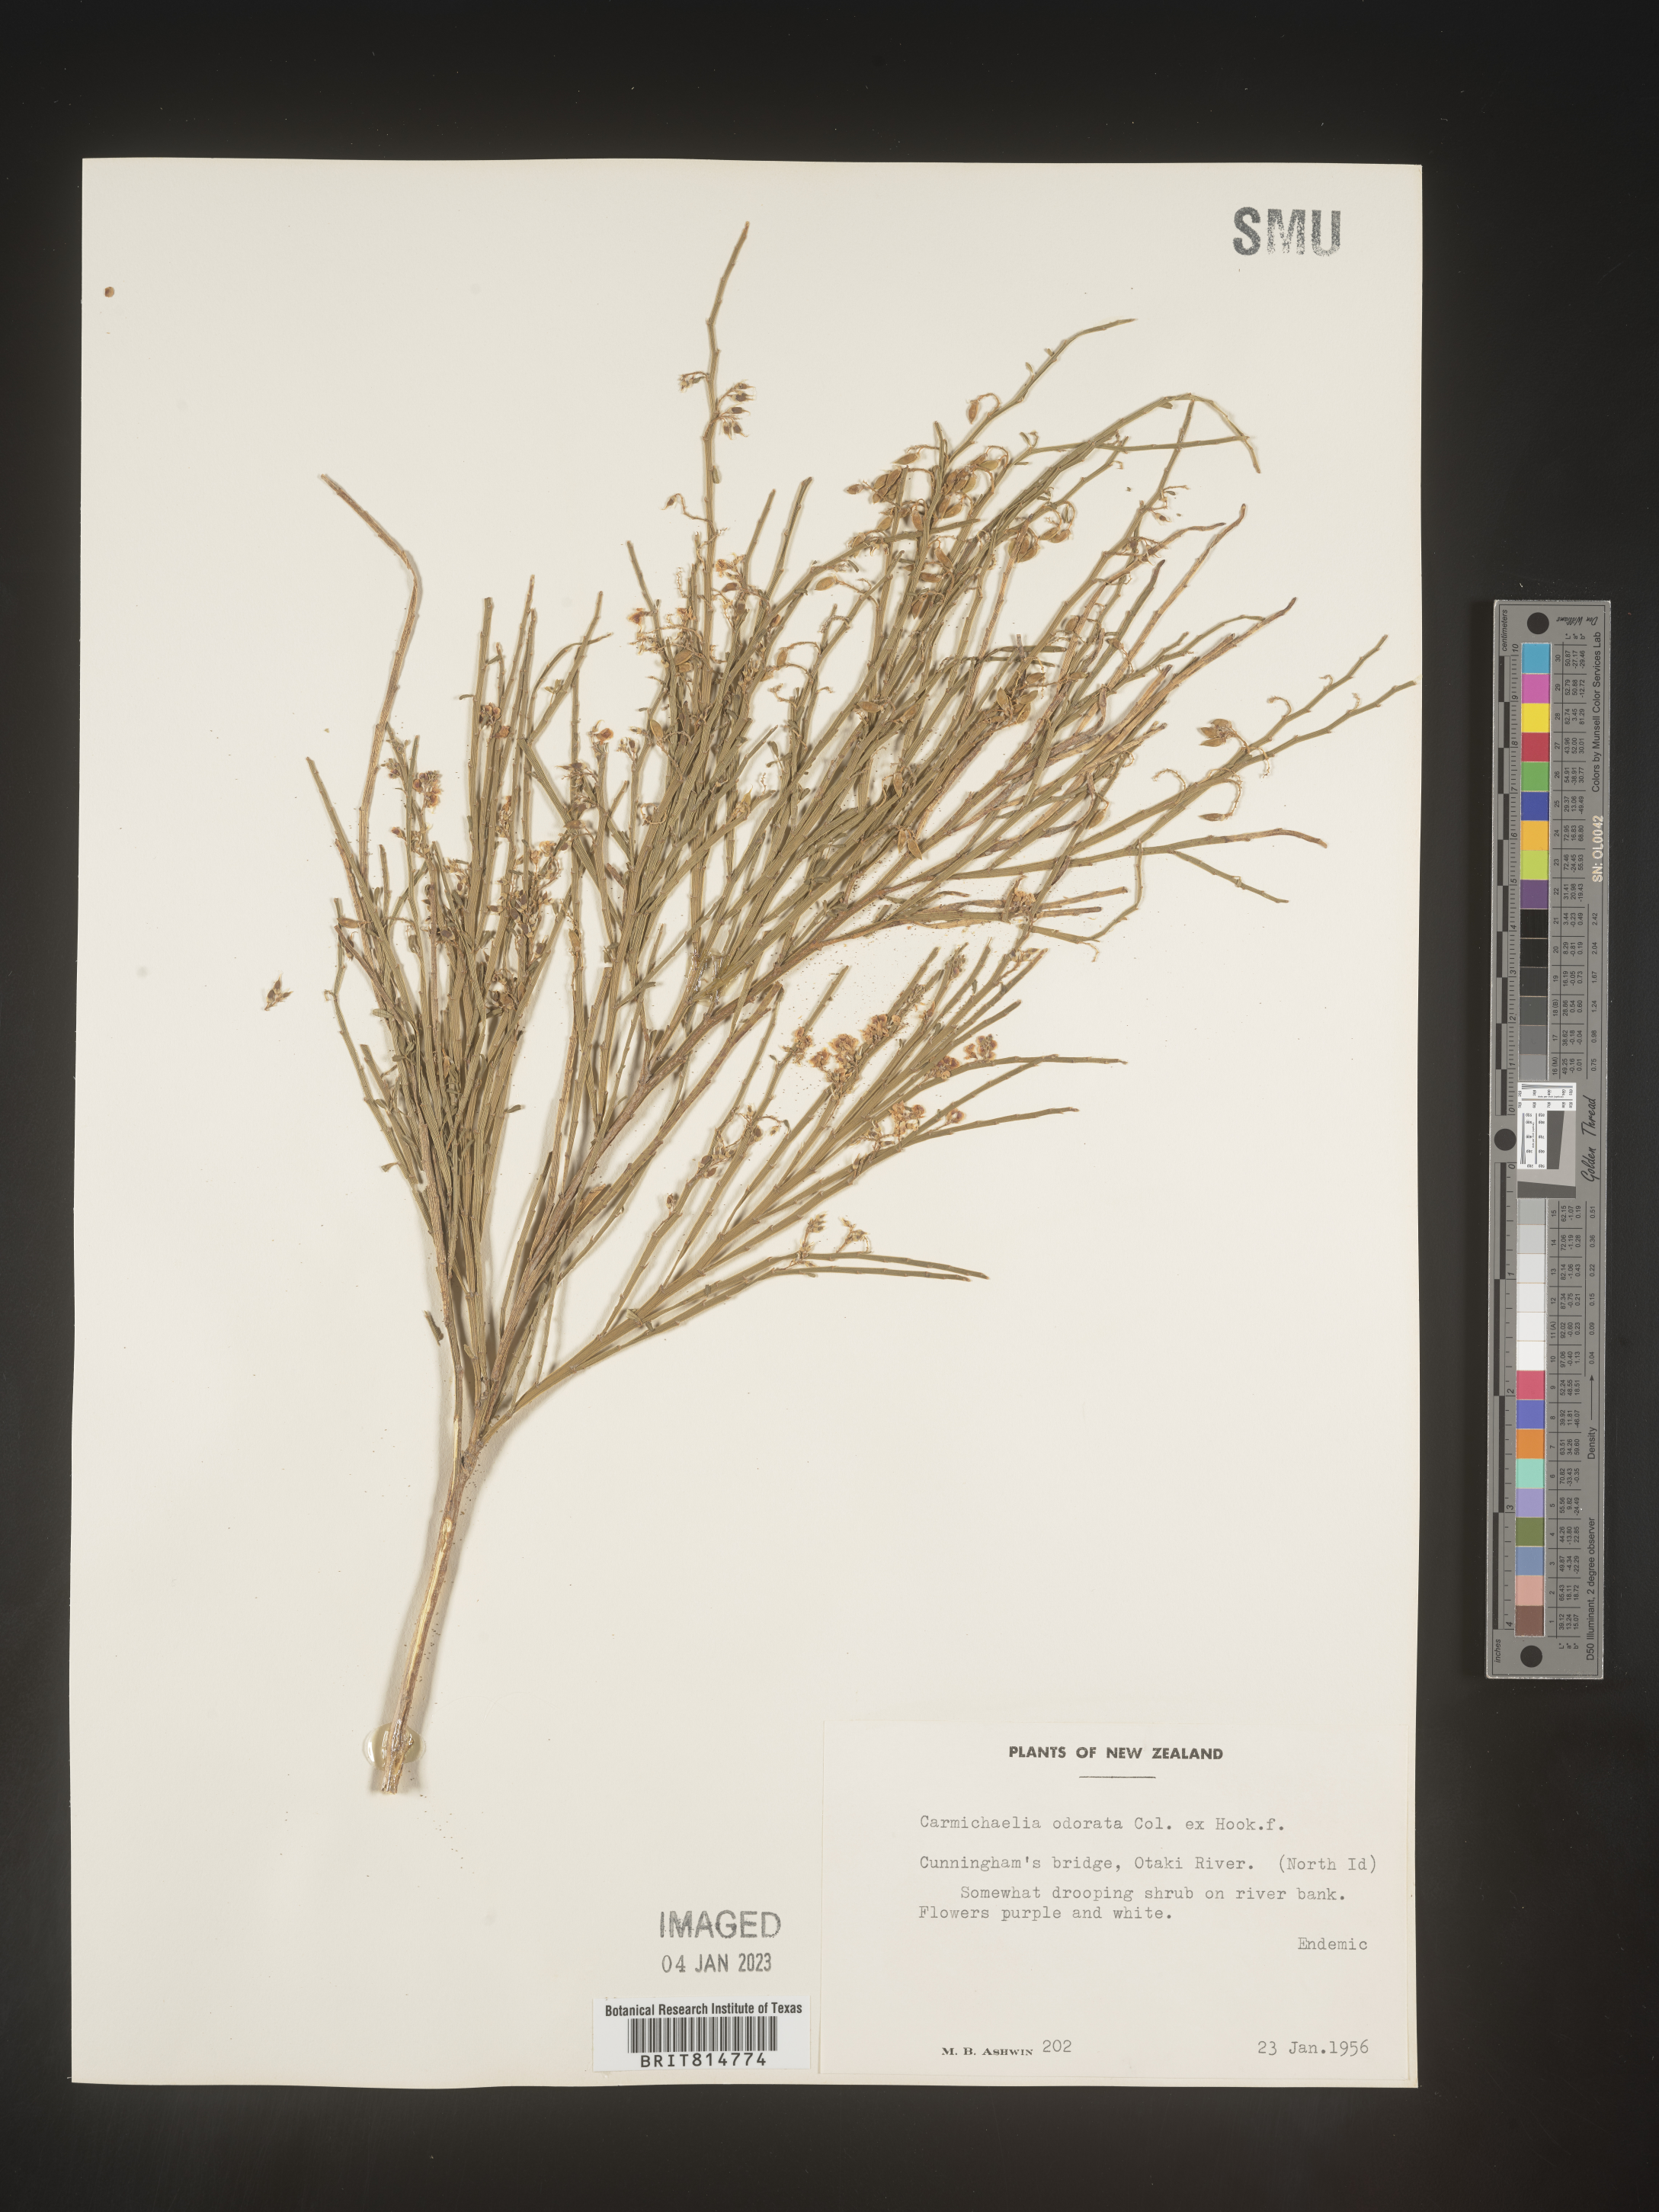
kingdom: Plantae
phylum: Tracheophyta
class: Magnoliopsida
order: Fabales
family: Fabaceae
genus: Carmichaelia
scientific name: Carmichaelia
